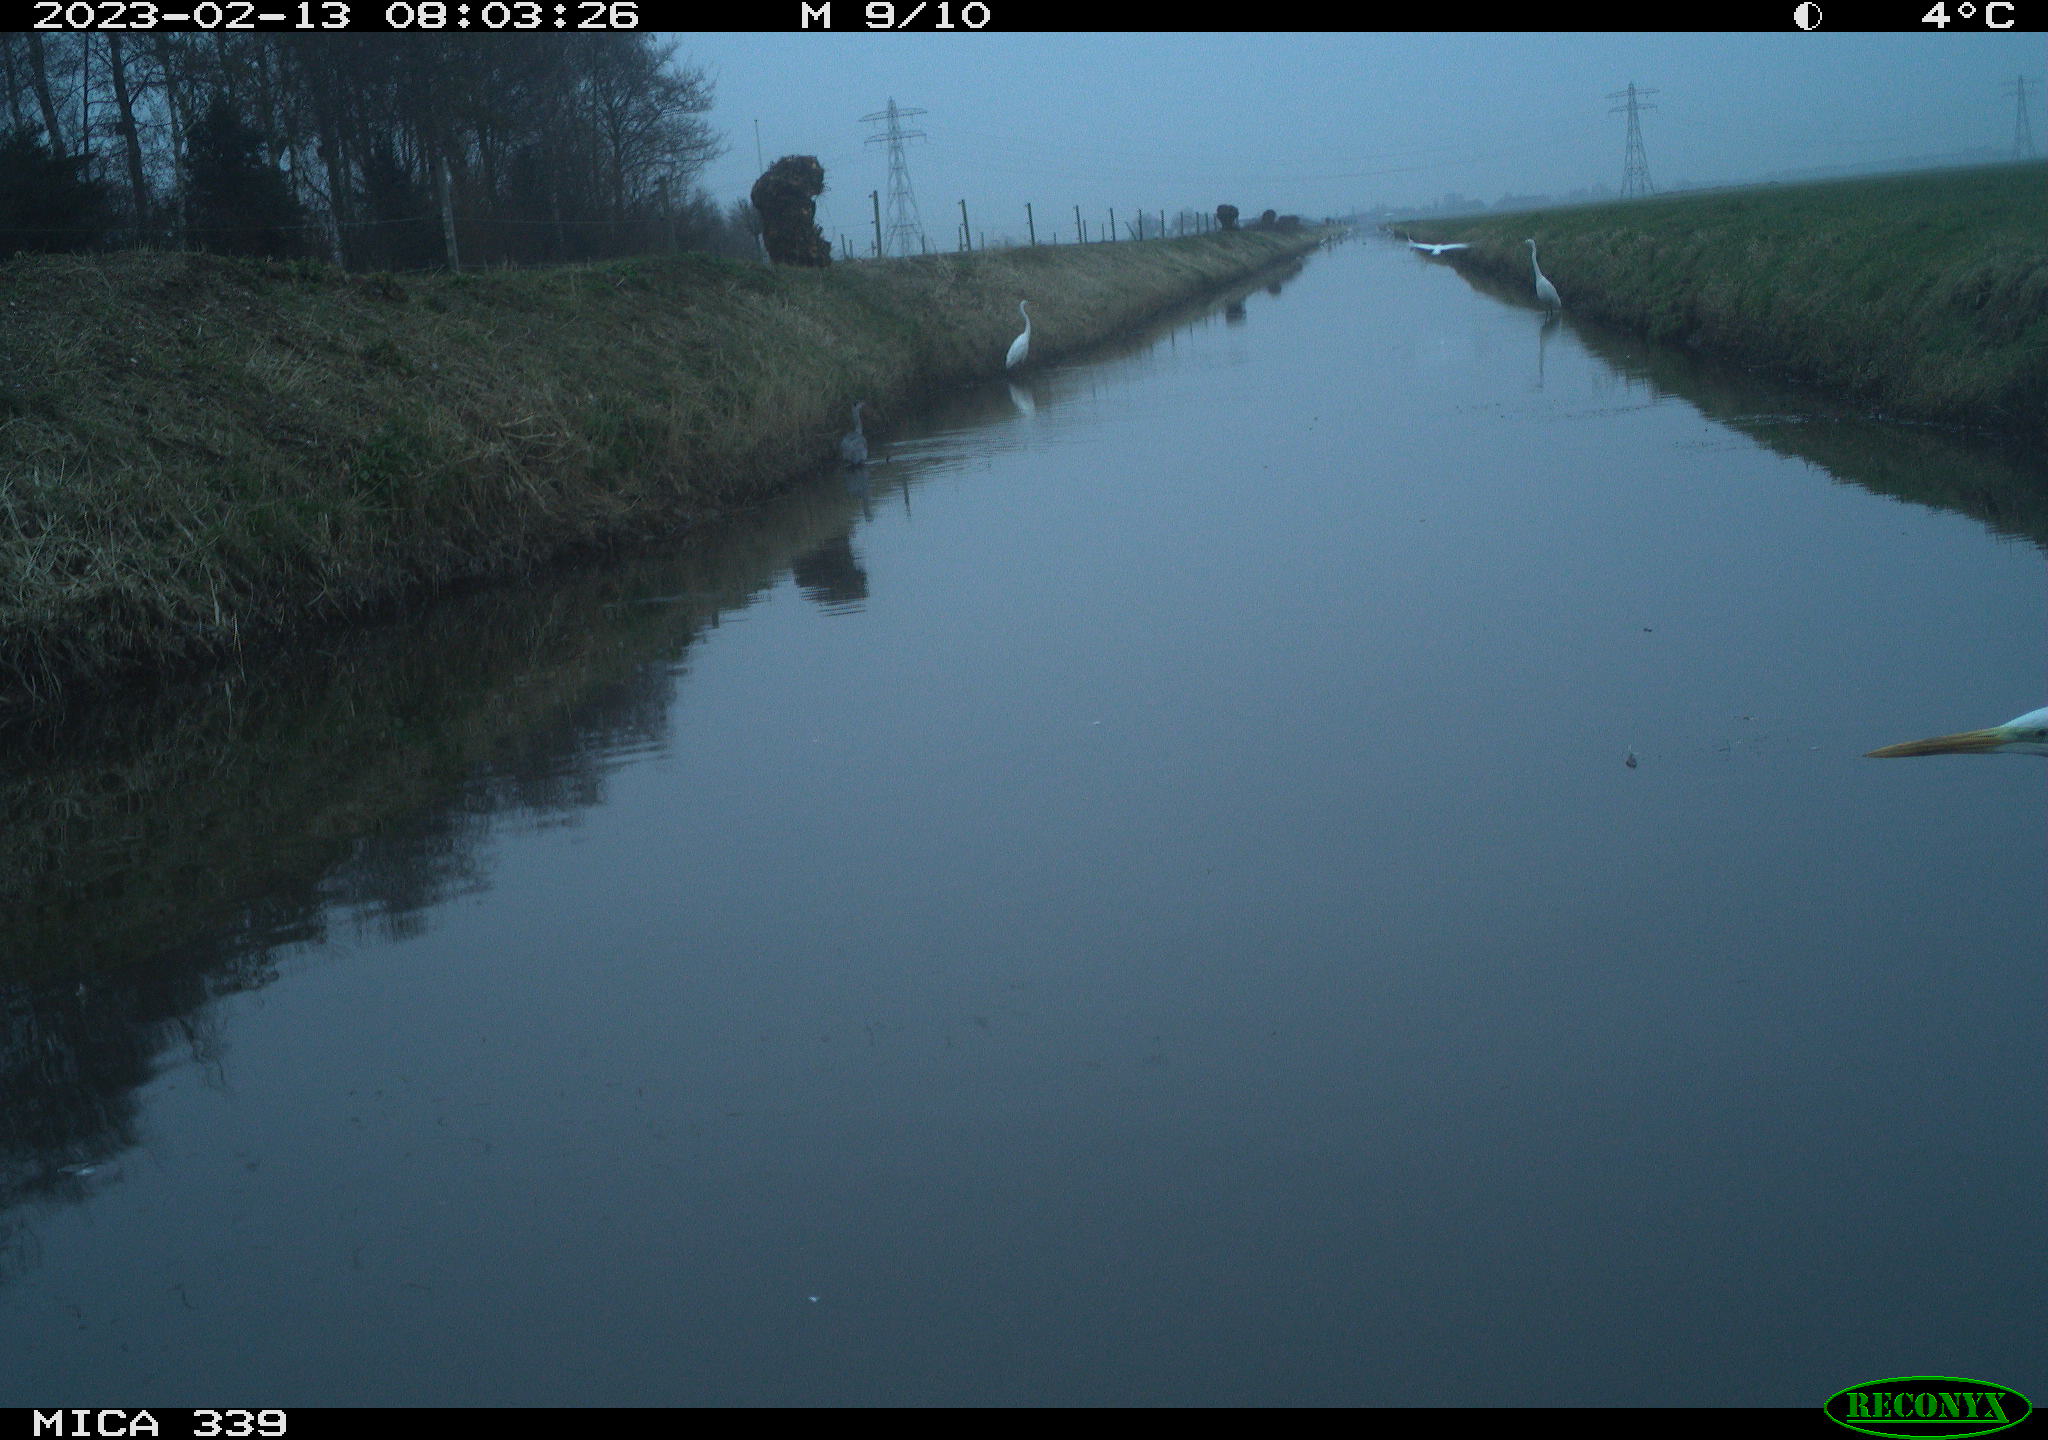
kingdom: Animalia
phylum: Chordata
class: Aves
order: Pelecaniformes
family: Ardeidae
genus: Ardea
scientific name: Ardea cinerea
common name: Grey heron
